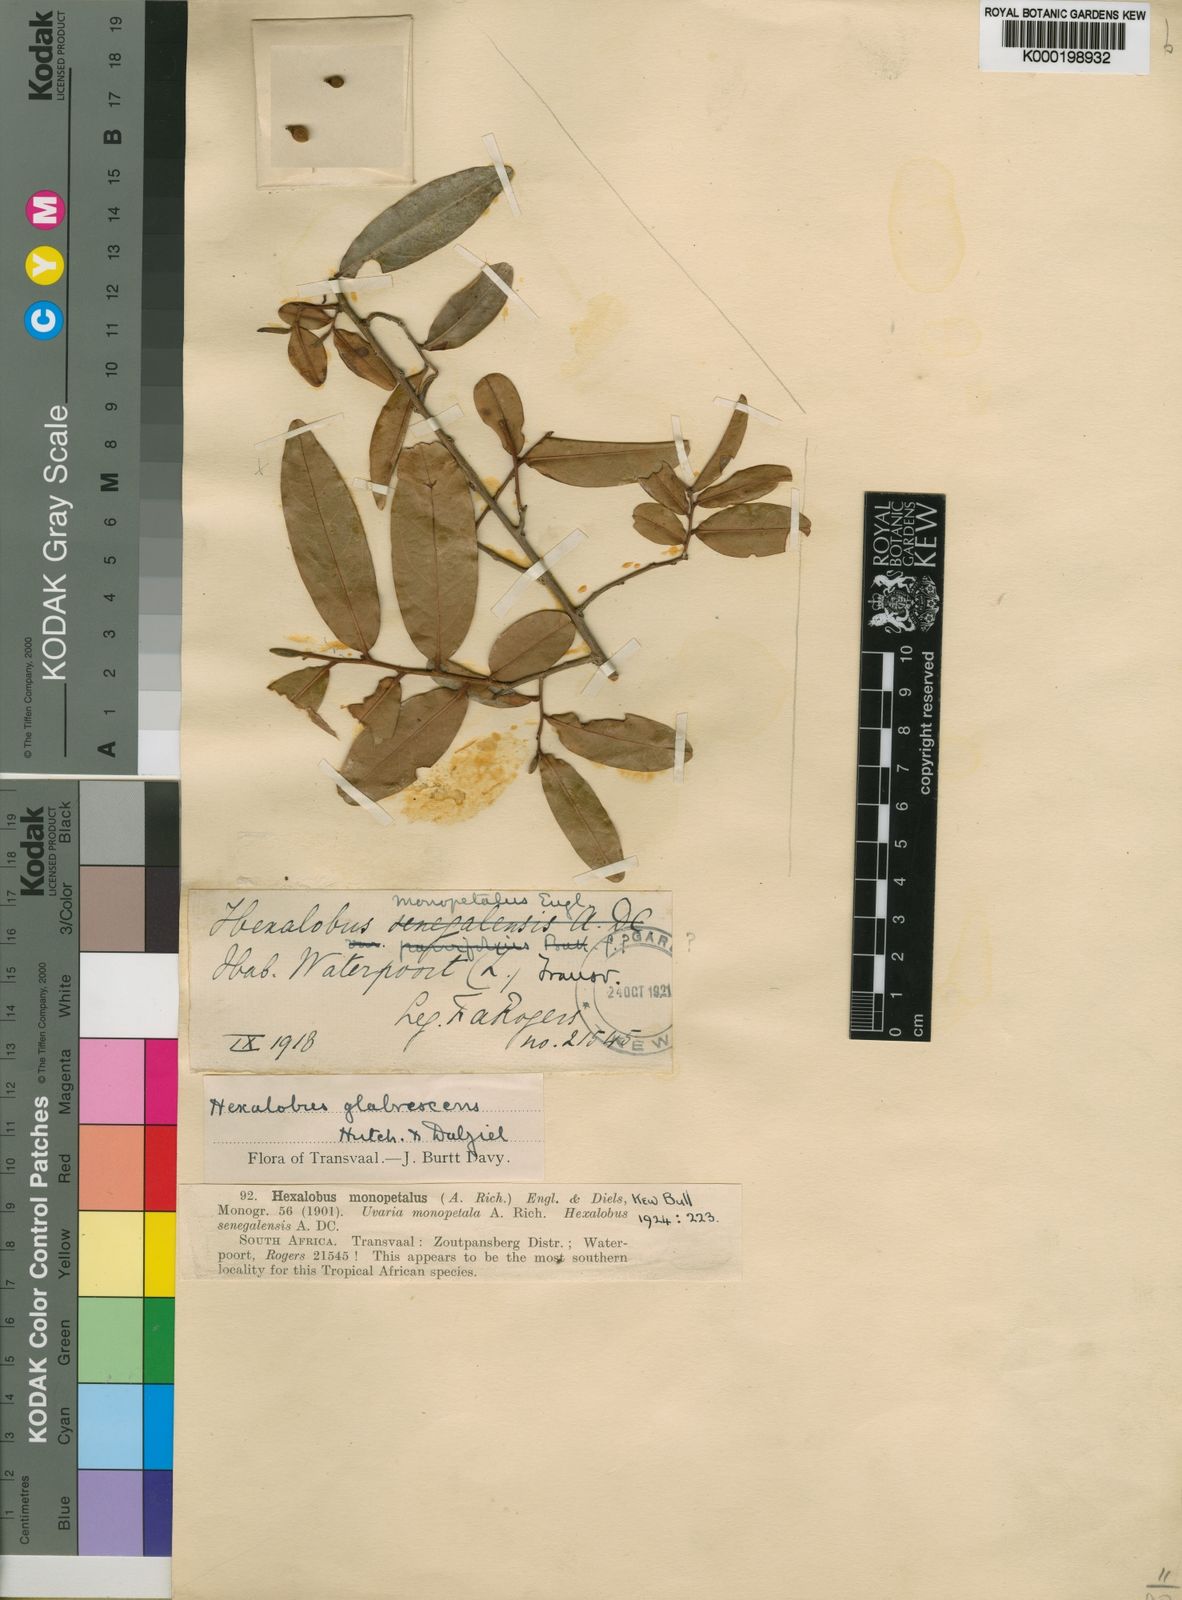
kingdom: Plantae
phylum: Tracheophyta
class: Magnoliopsida
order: Magnoliales
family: Annonaceae
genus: Hexalobus
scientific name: Hexalobus
